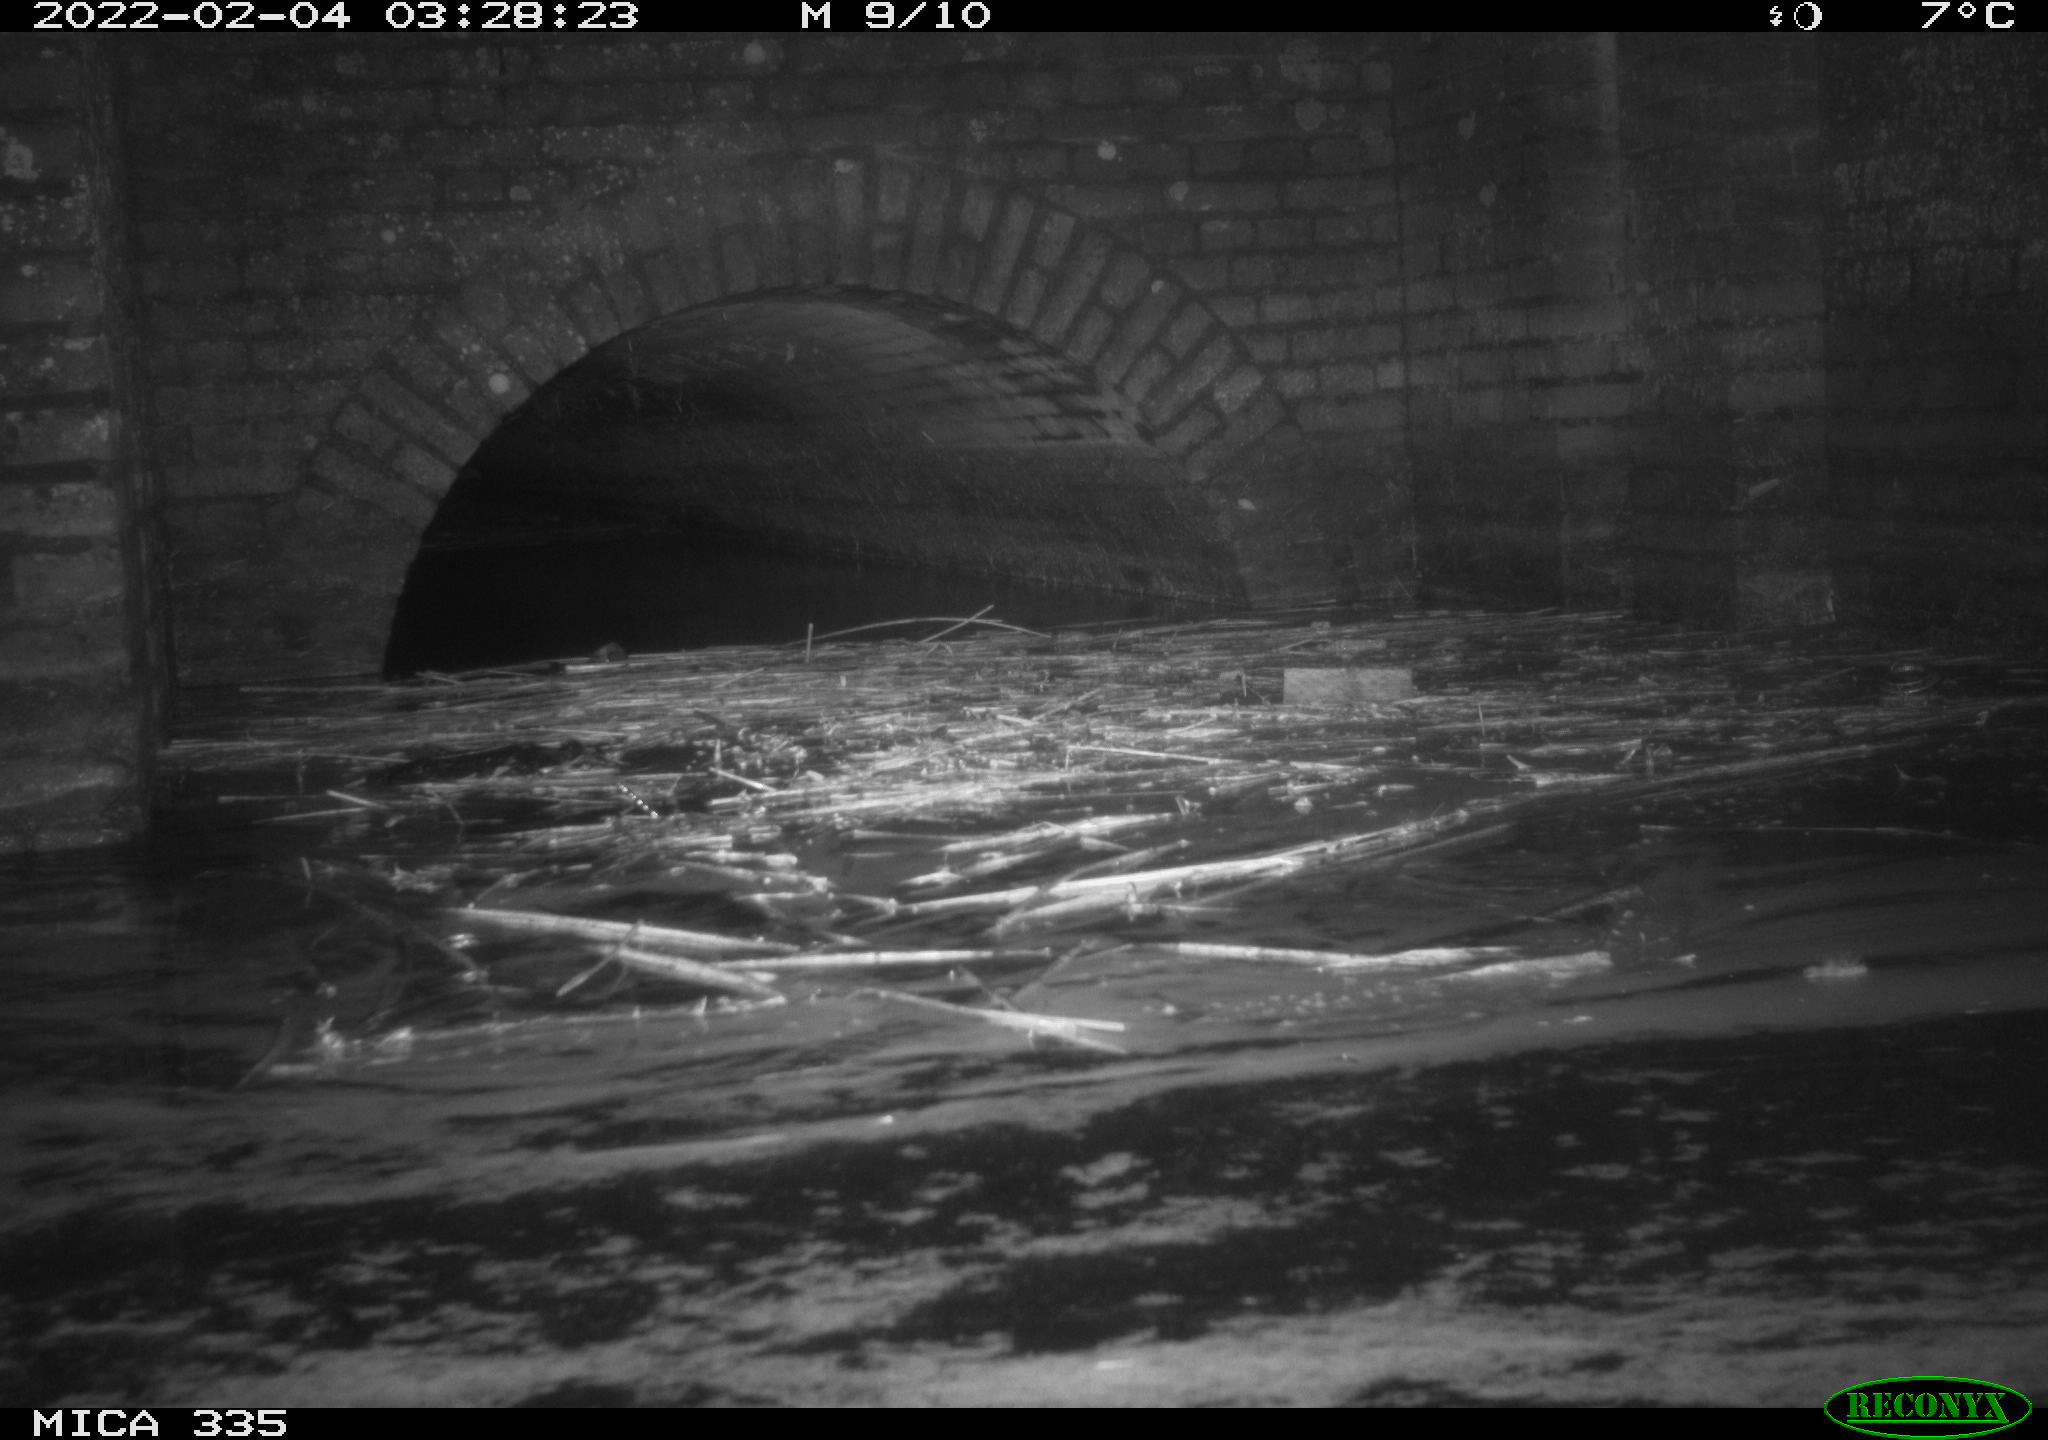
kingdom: Animalia
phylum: Chordata
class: Mammalia
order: Rodentia
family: Muridae
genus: Rattus
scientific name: Rattus norvegicus
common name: Brown rat
